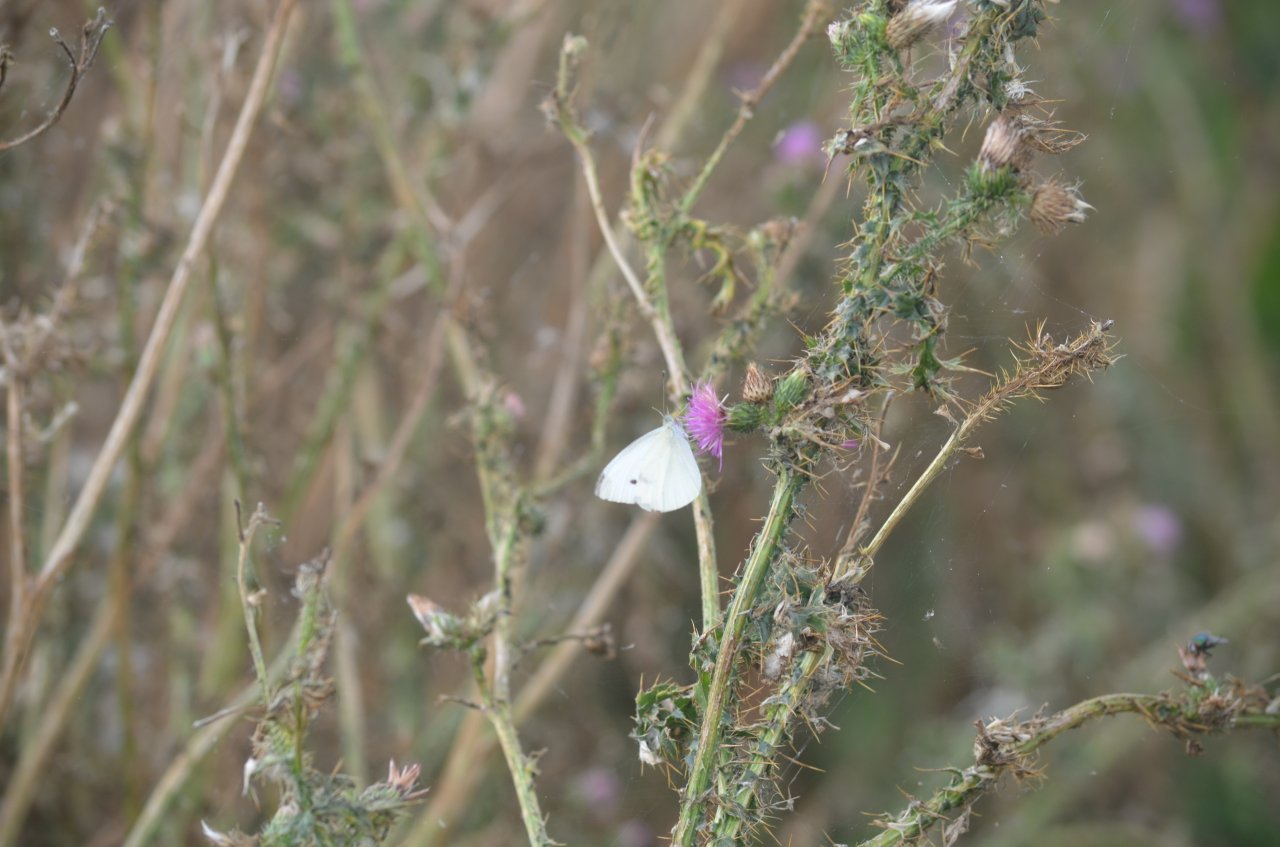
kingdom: Animalia
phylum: Arthropoda
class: Insecta
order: Lepidoptera
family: Pieridae
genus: Pieris
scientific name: Pieris rapae
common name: Cabbage White
